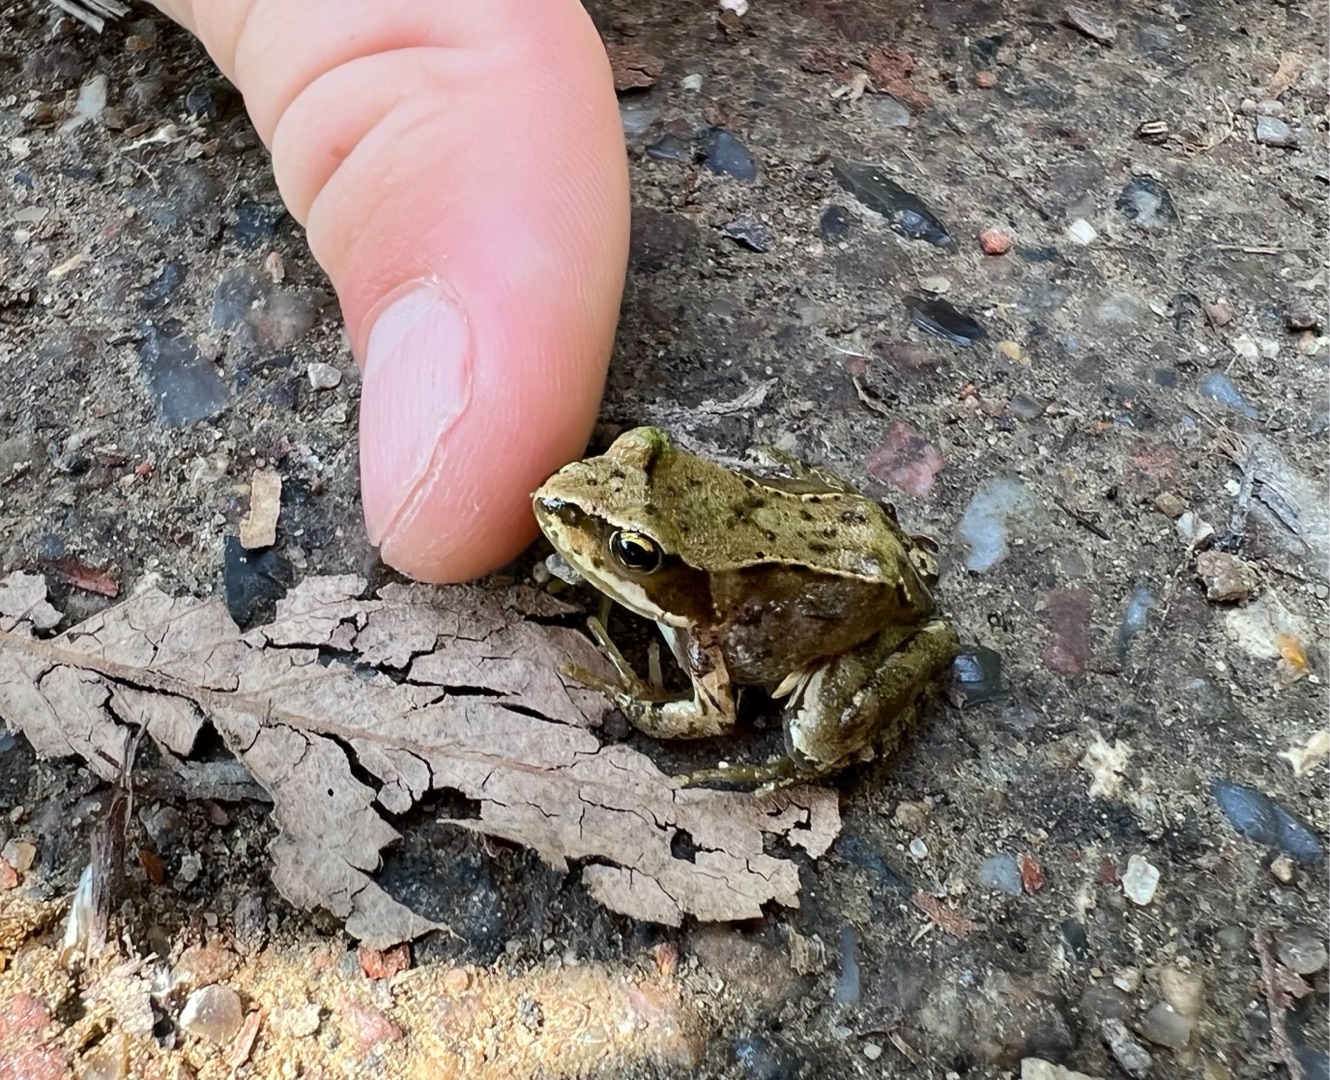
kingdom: Animalia
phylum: Chordata
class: Amphibia
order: Anura
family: Ranidae
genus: Rana
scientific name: Rana temporaria
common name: Butsnudet frø
